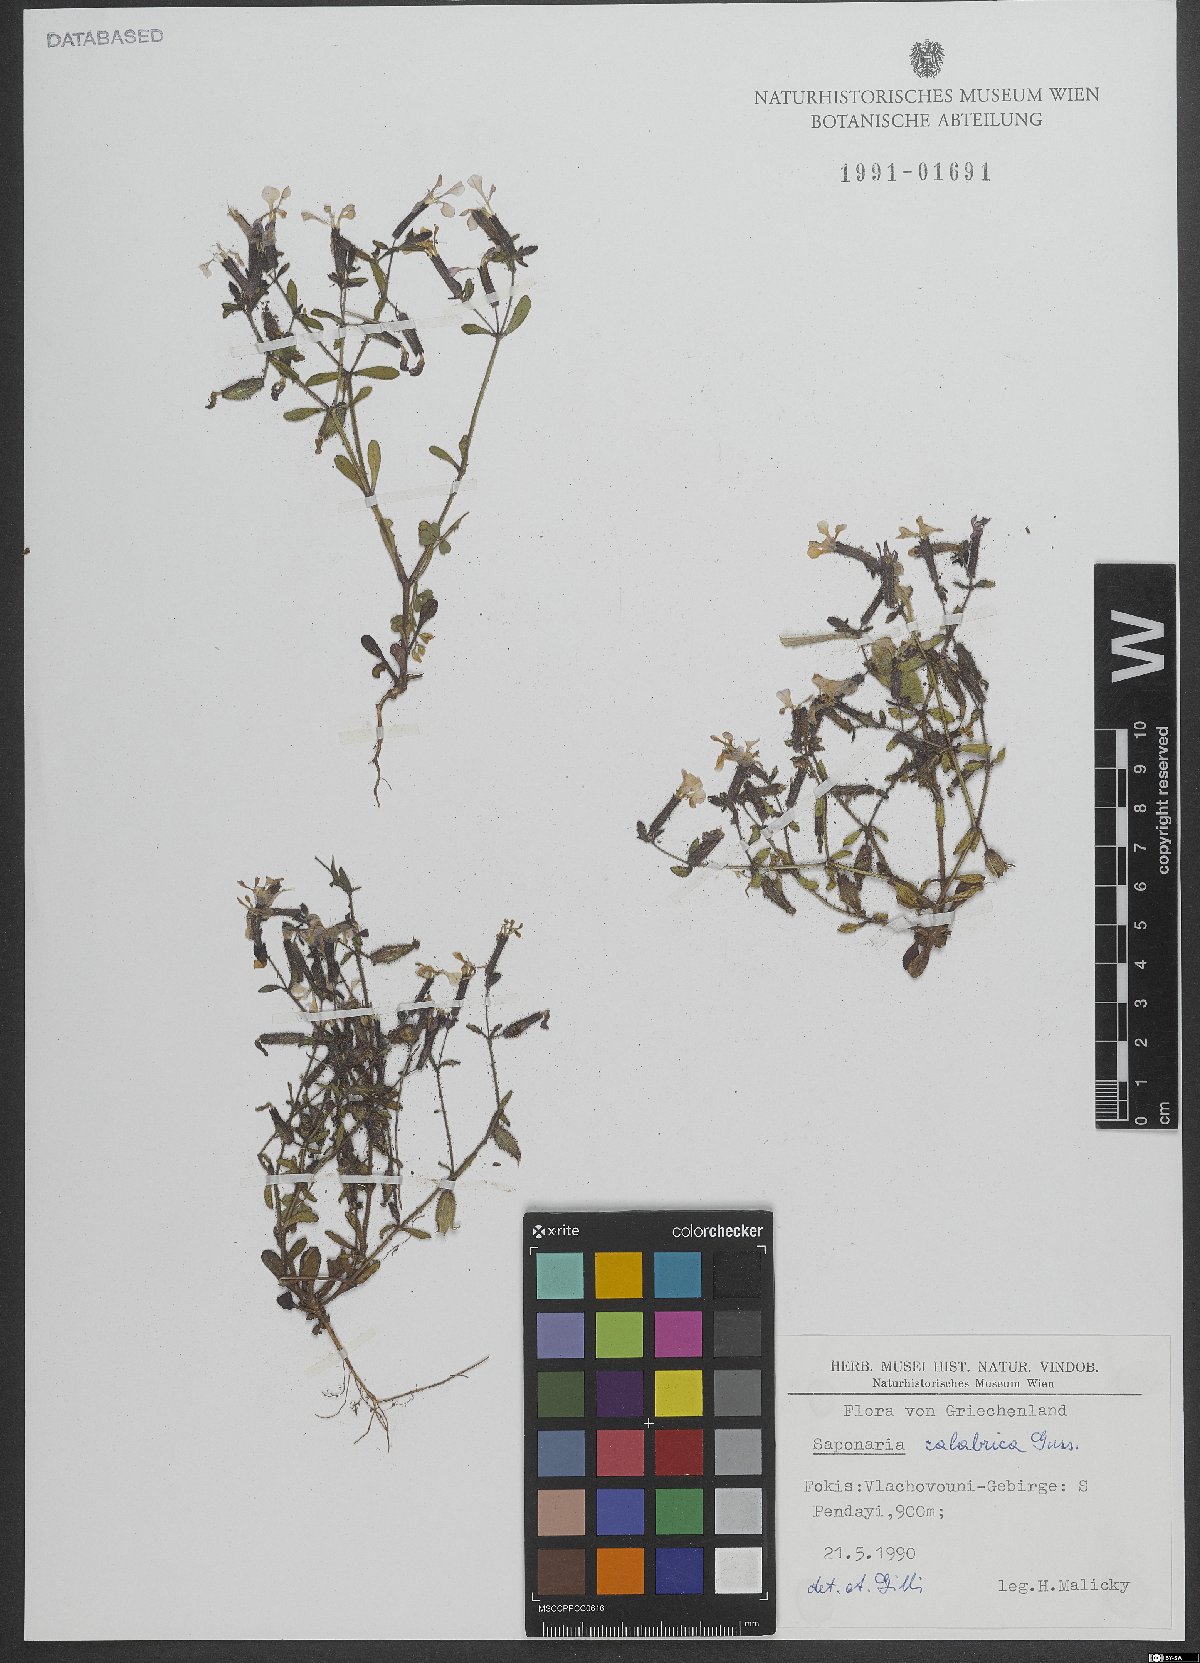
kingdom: Plantae
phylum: Tracheophyta
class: Magnoliopsida
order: Caryophyllales
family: Caryophyllaceae
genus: Saponaria
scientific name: Saponaria calabrica
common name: Adriatic soapwort
